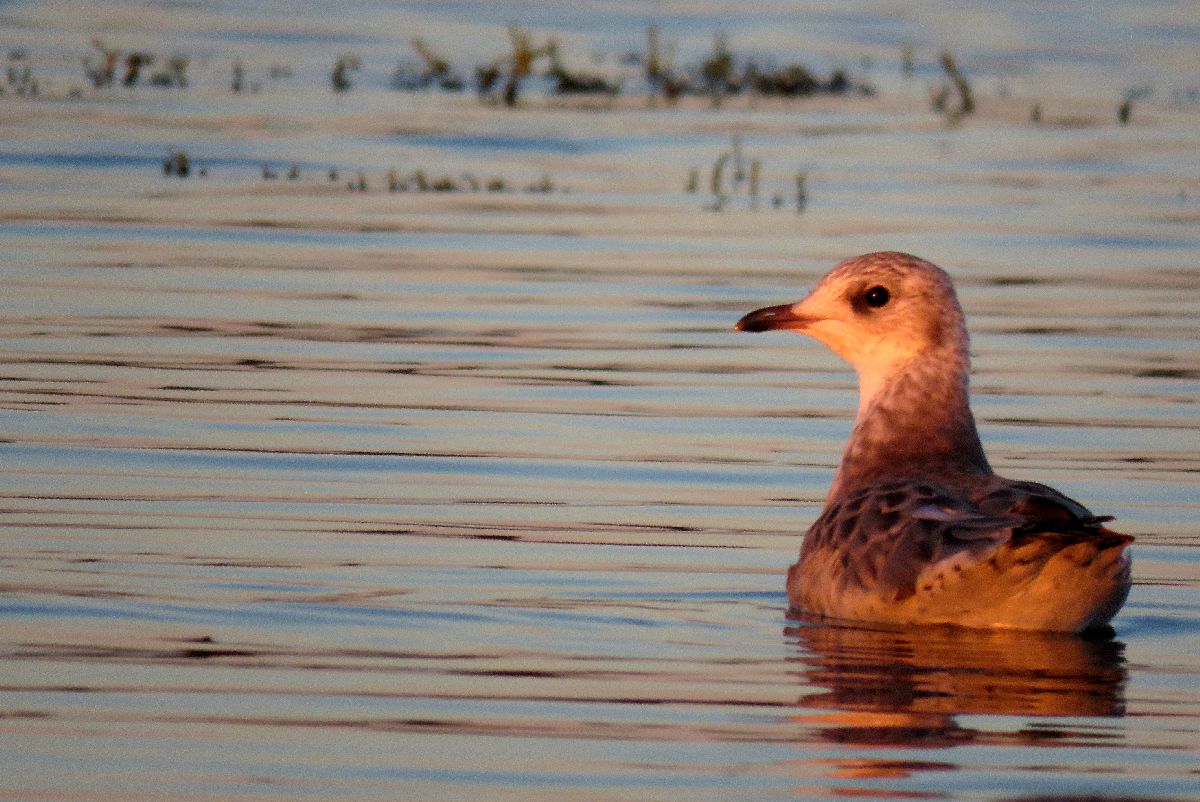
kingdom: Animalia
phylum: Chordata
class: Aves
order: Charadriiformes
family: Laridae
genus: Larus
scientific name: Larus canus
